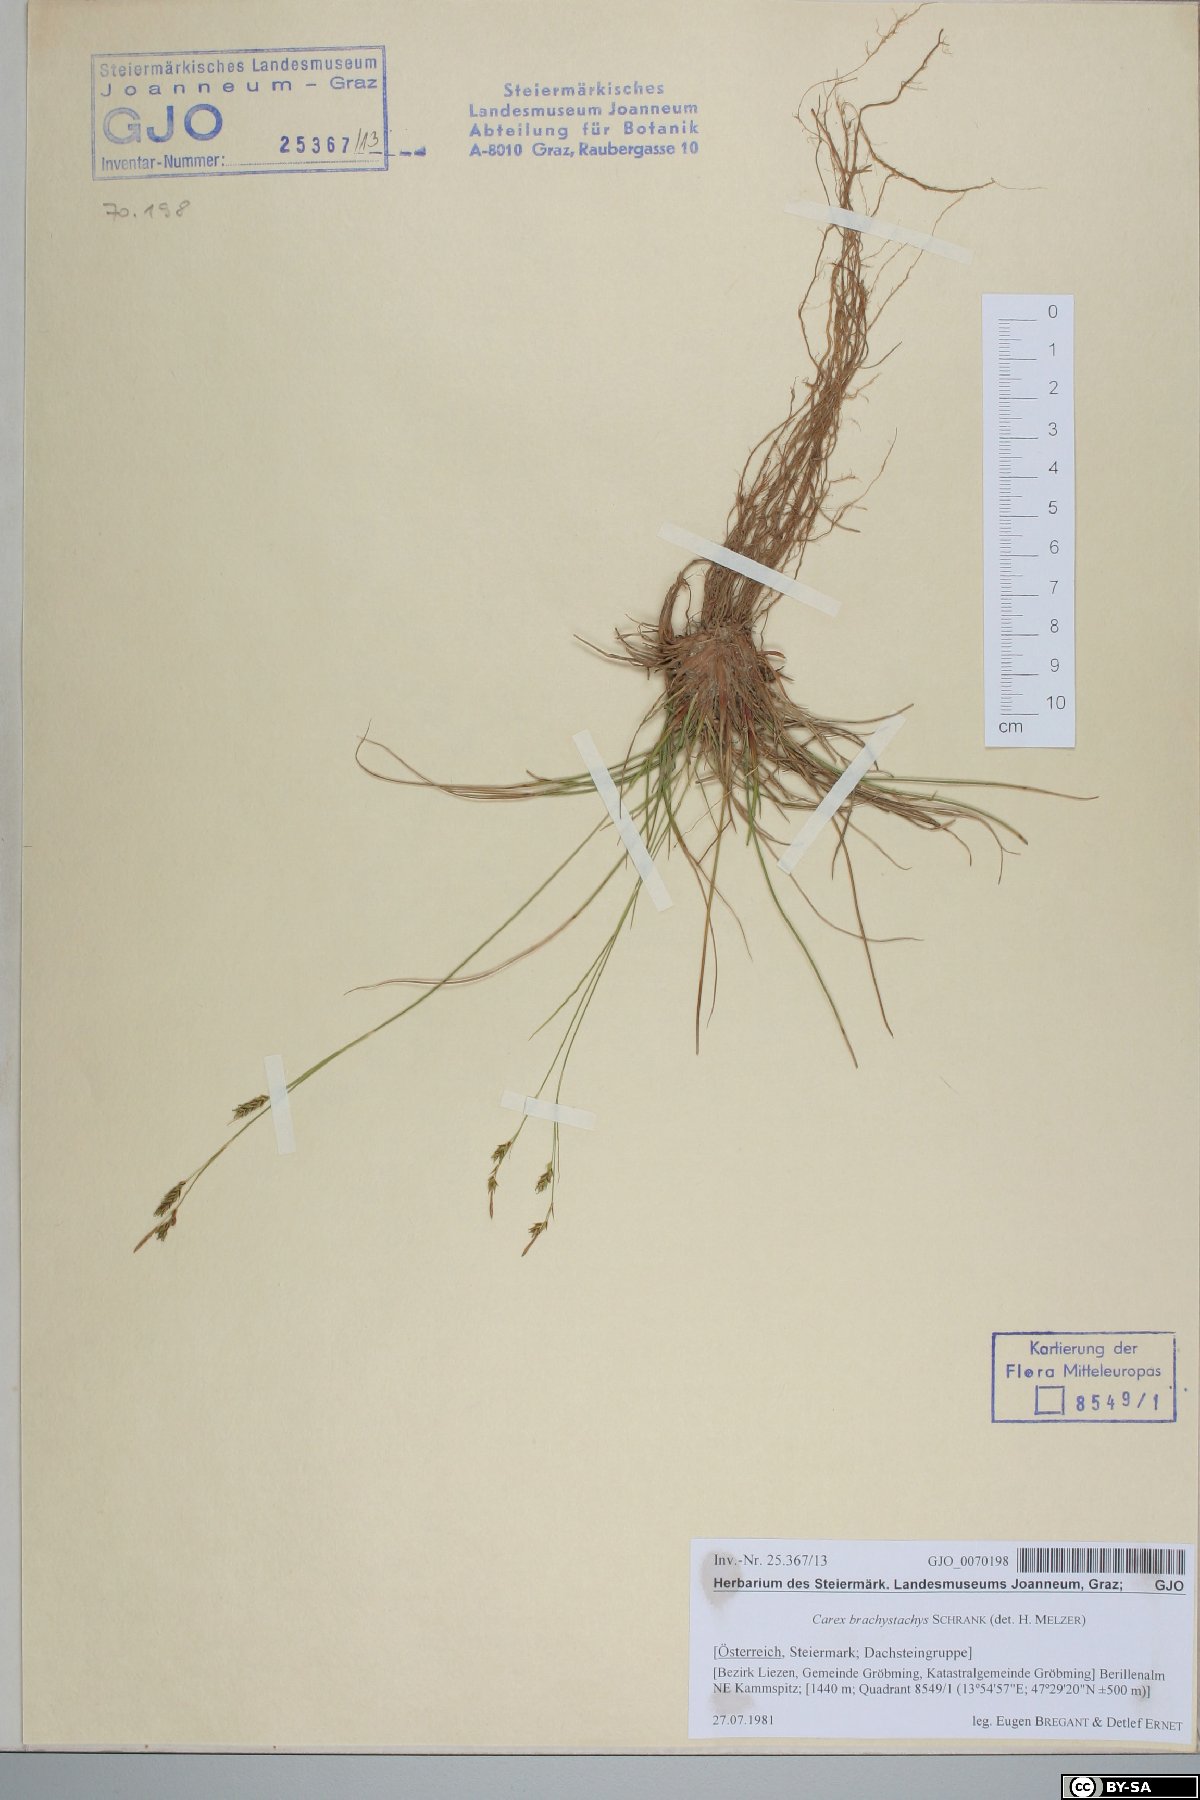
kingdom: Plantae
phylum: Tracheophyta
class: Liliopsida
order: Poales
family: Cyperaceae
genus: Carex
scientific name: Carex brachystachys
